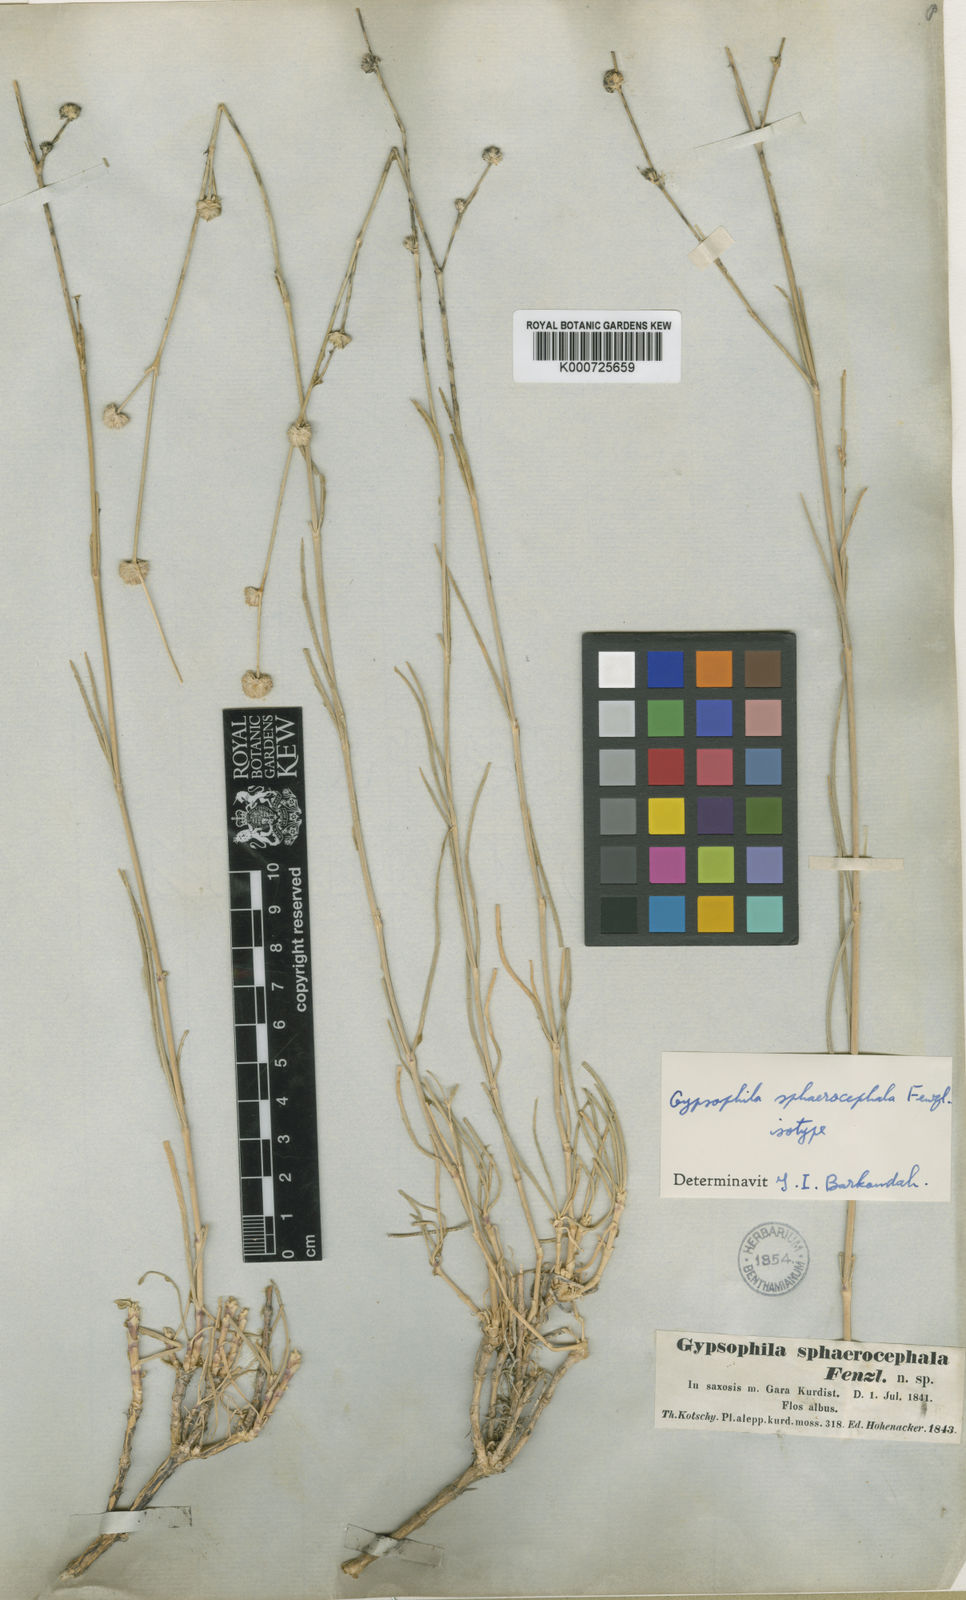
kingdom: Plantae
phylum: Tracheophyta
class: Magnoliopsida
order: Caryophyllales
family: Caryophyllaceae
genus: Gypsophila
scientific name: Gypsophila laricina
